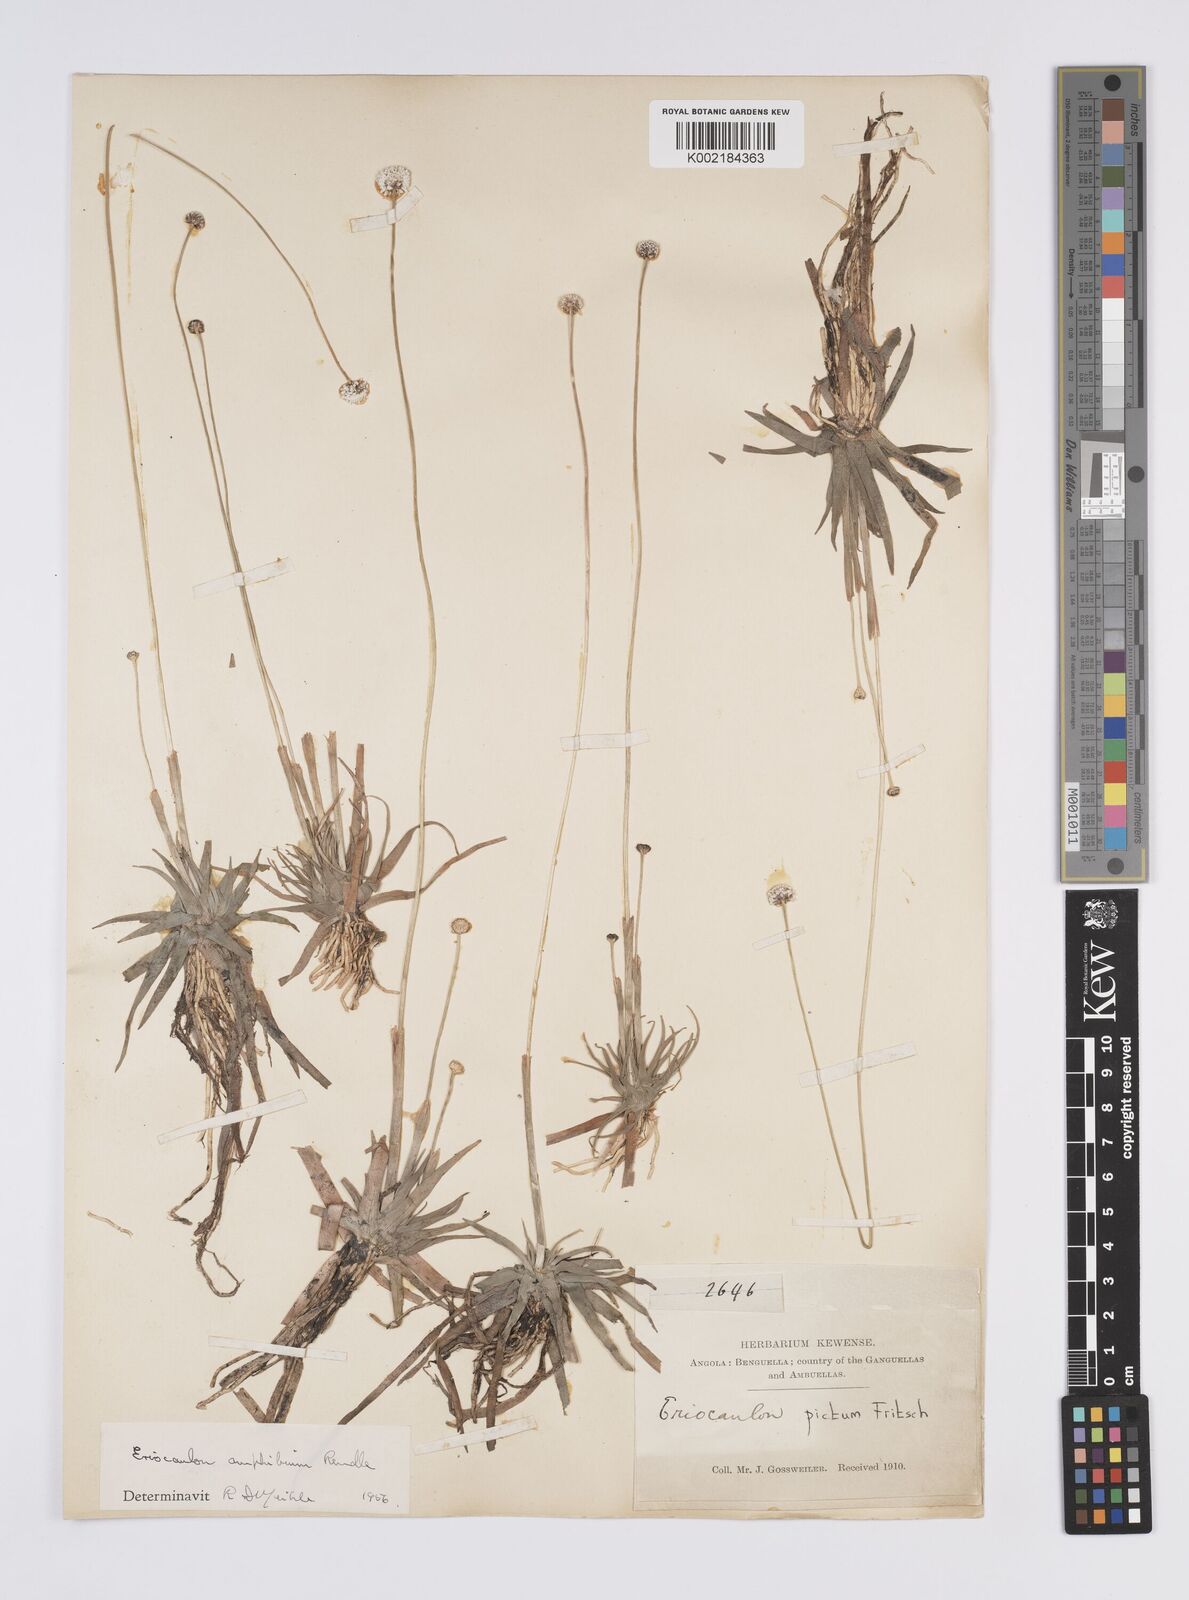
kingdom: Plantae
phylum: Tracheophyta
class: Liliopsida
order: Poales
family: Eriocaulaceae
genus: Eriocaulon
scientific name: Eriocaulon pictum
